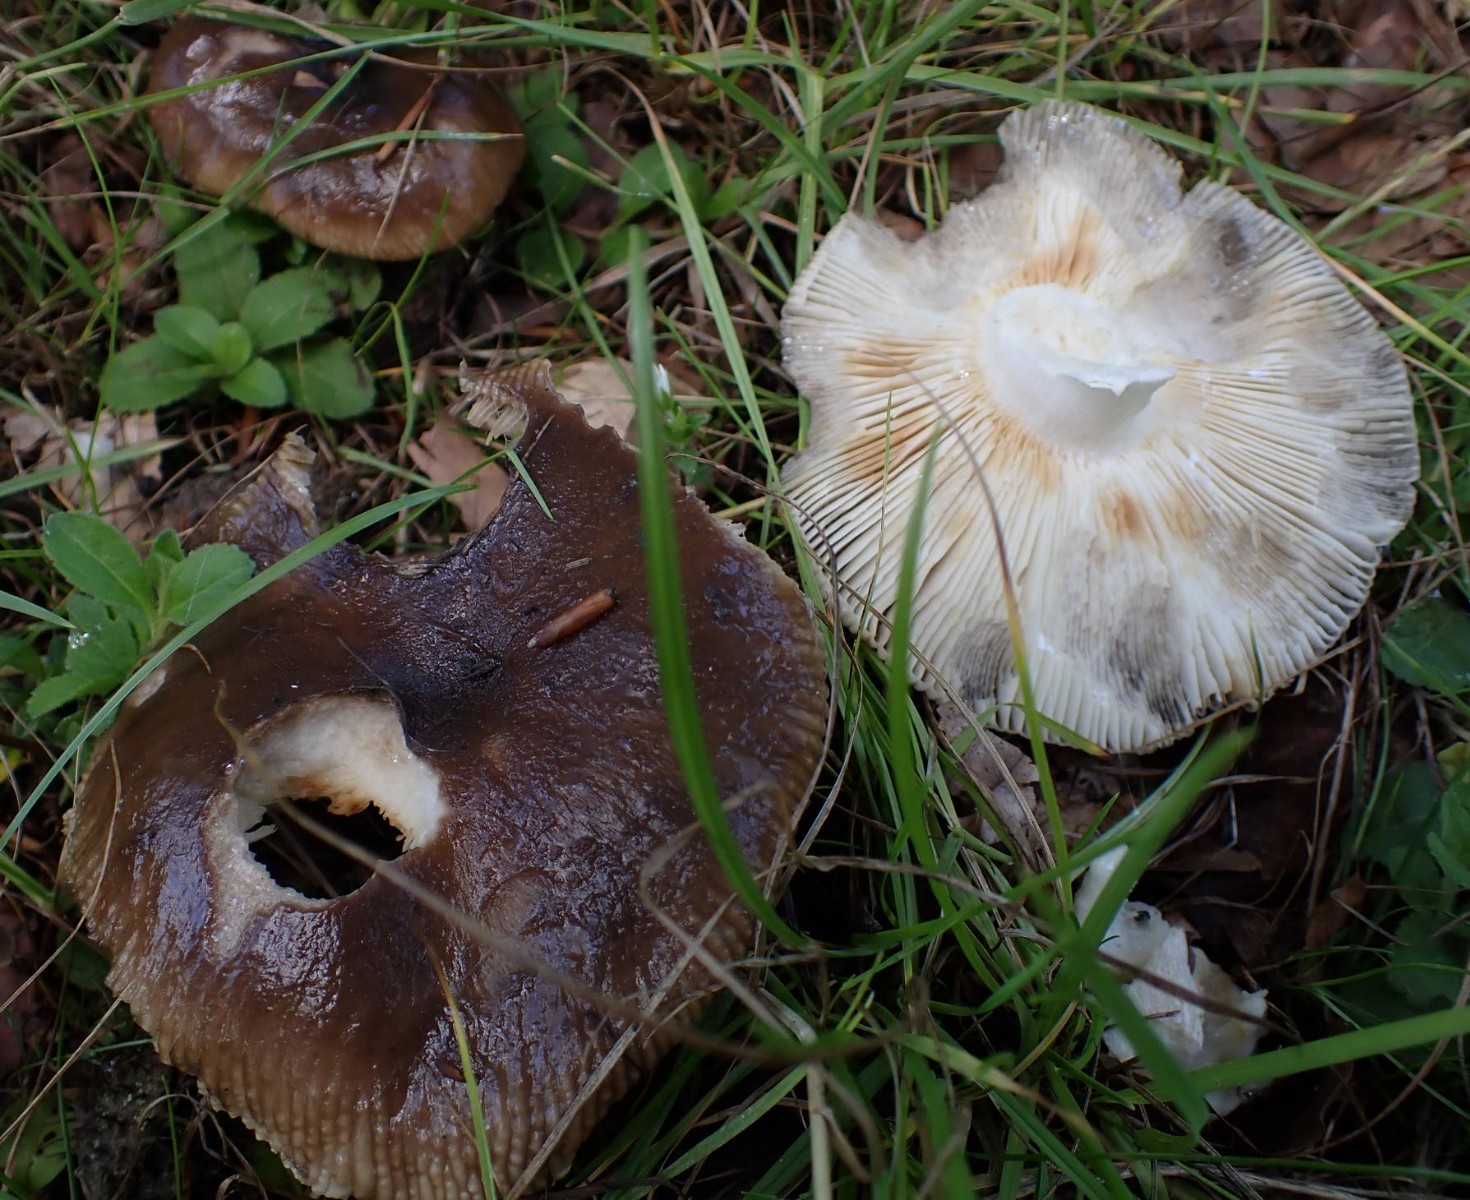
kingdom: Fungi
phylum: Basidiomycota
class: Agaricomycetes
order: Russulales
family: Russulaceae
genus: Russula
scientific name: Russula amoenolens
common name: skarp kam-skørhat
